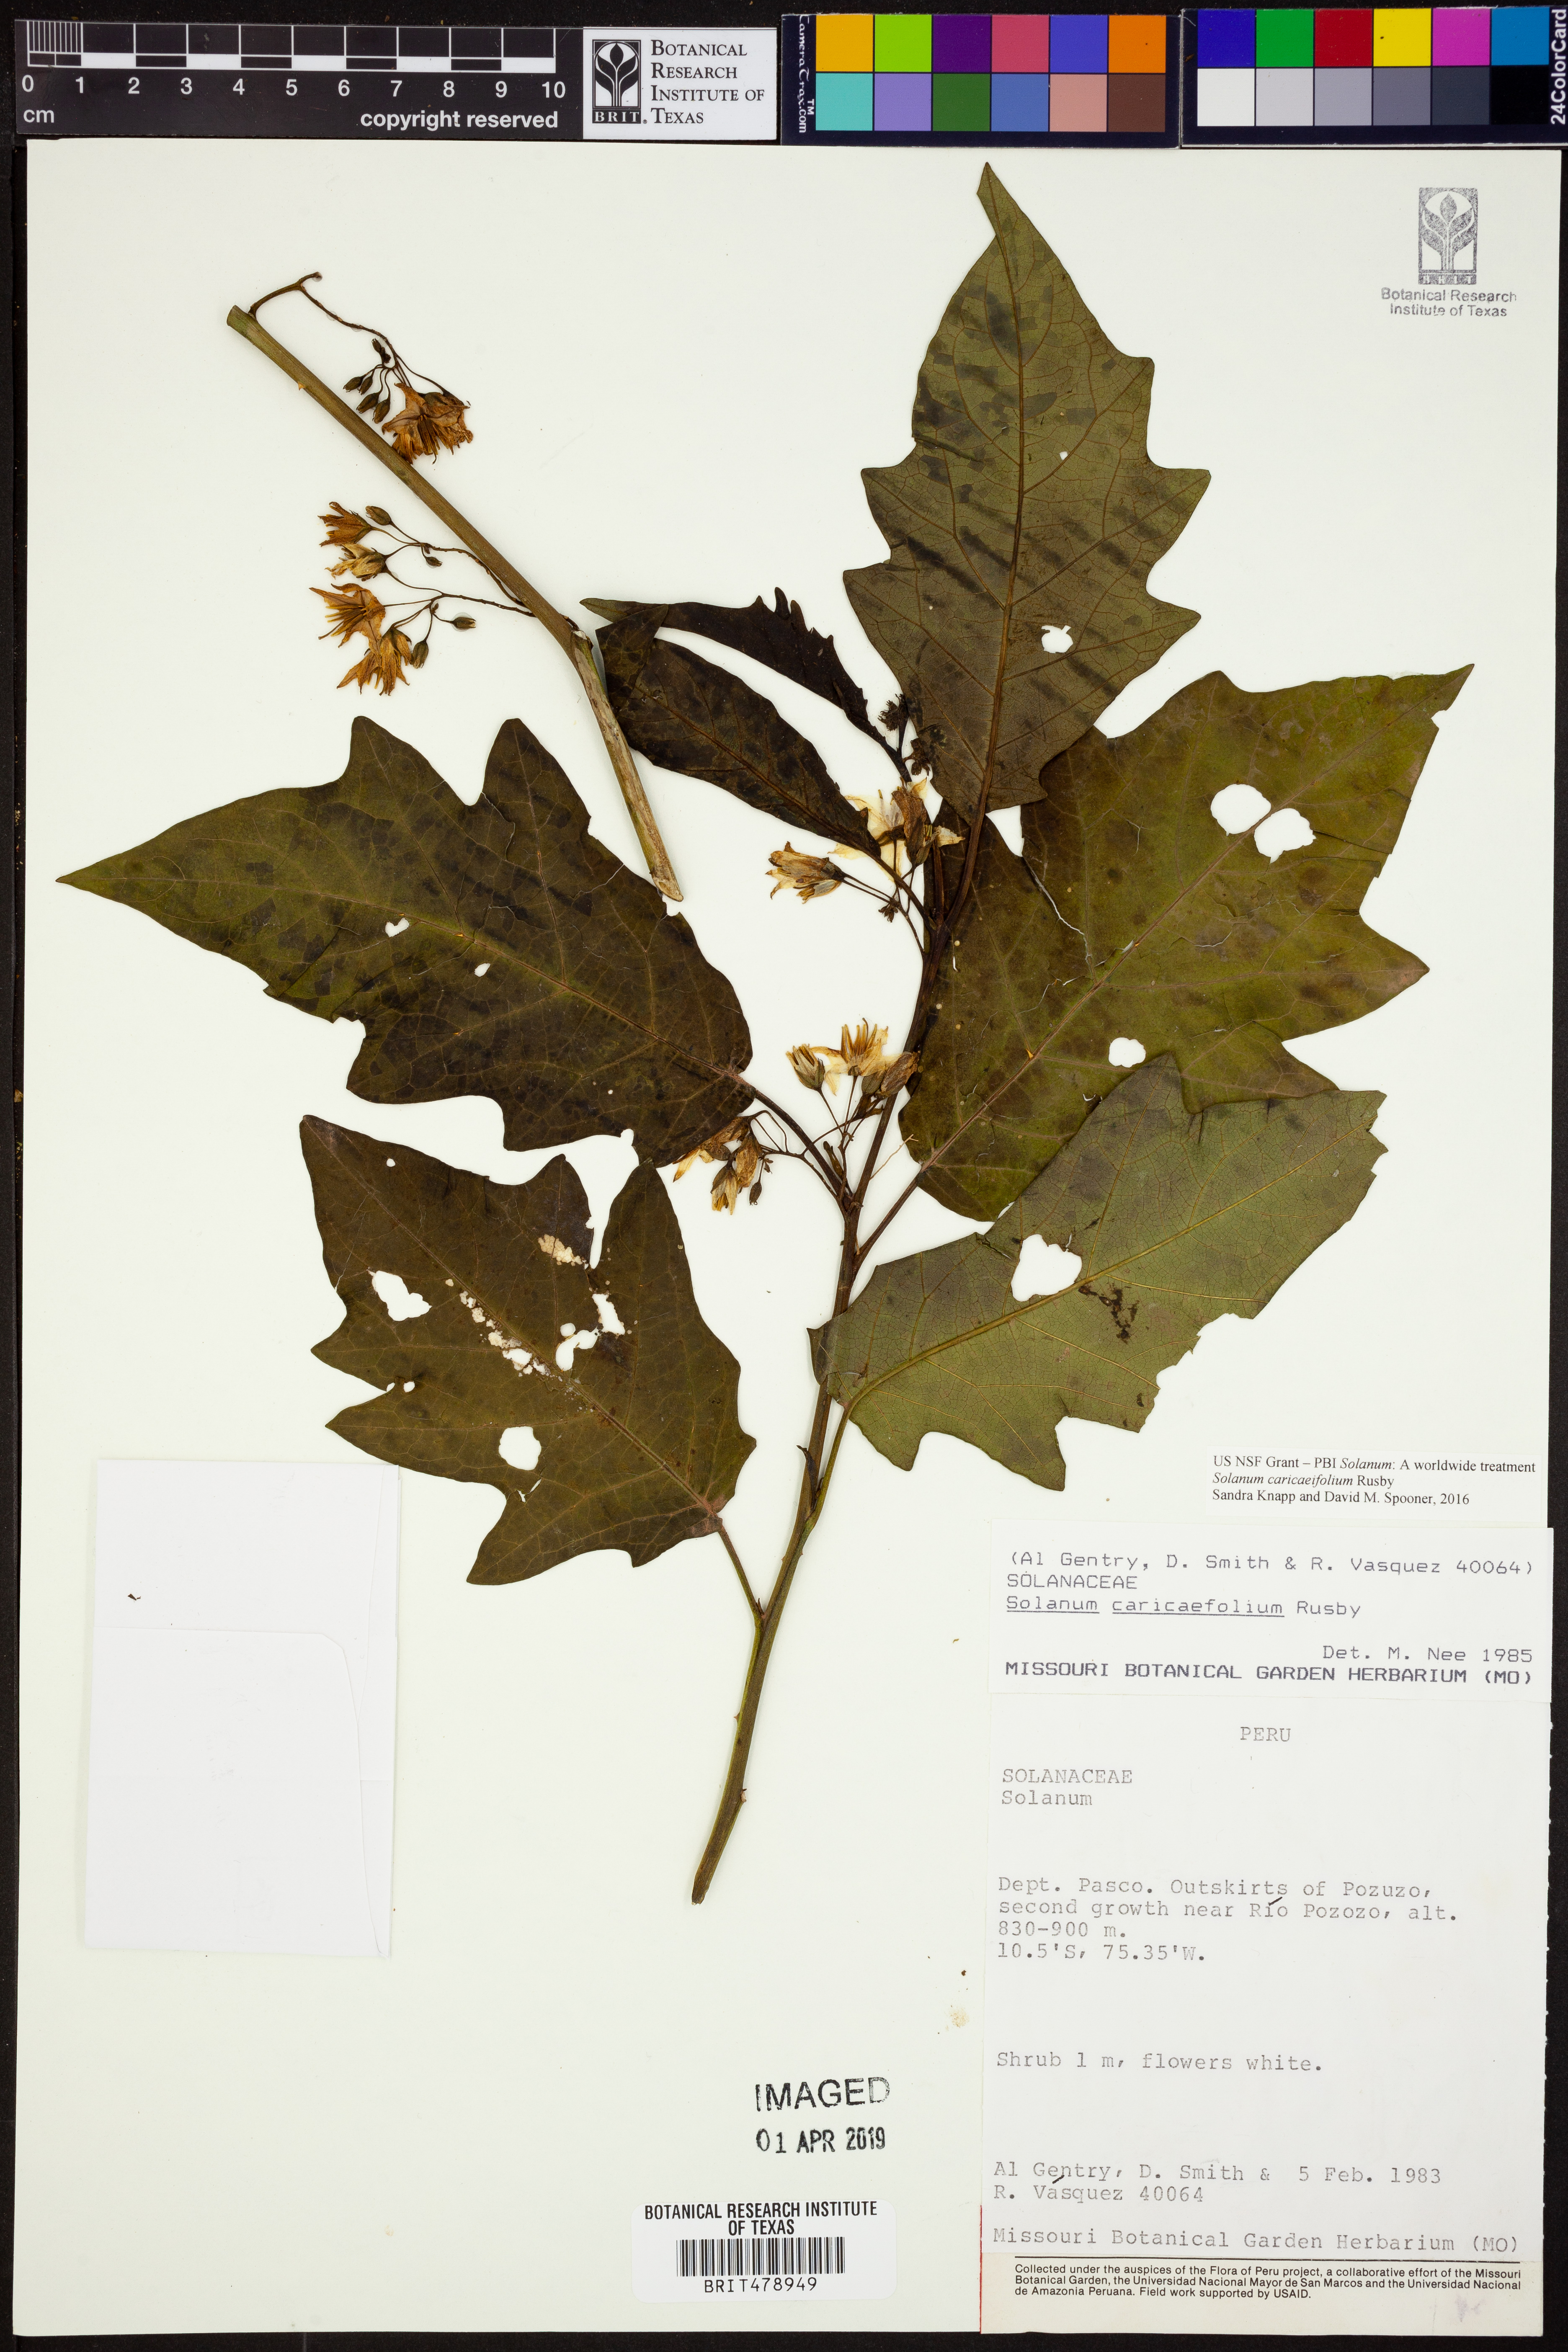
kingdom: Plantae
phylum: Tracheophyta
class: Magnoliopsida
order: Solanales
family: Solanaceae
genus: Solanum
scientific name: Solanum caricaefolium
